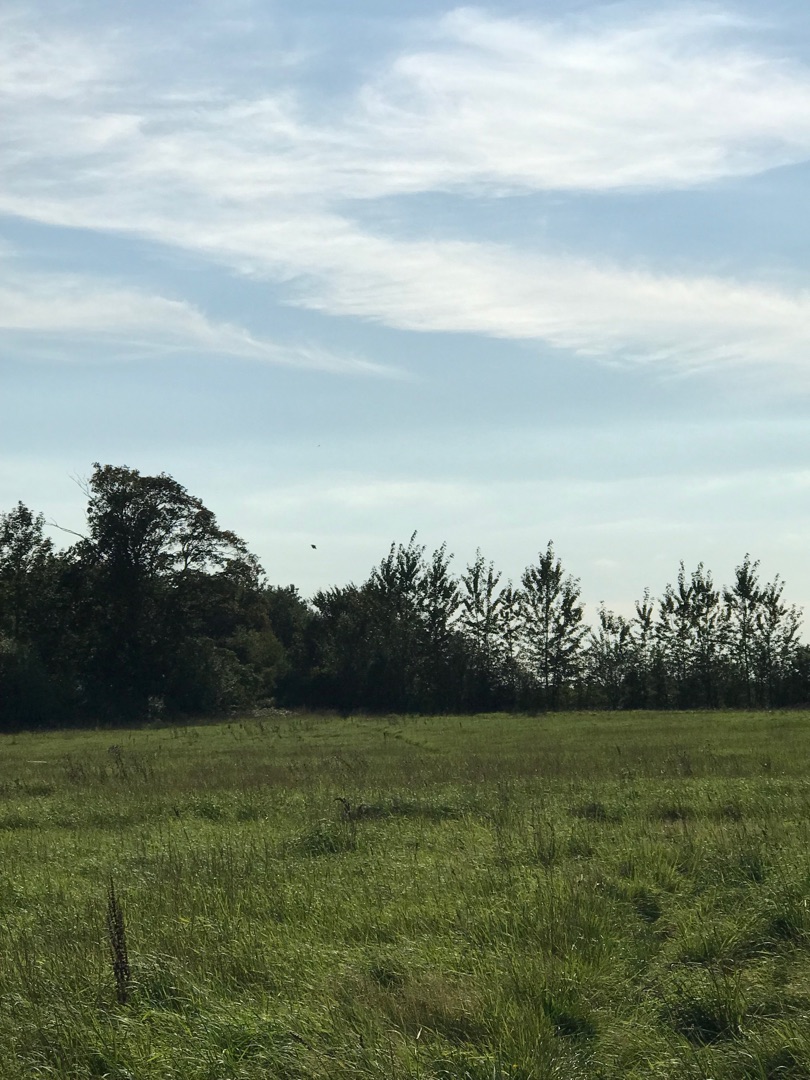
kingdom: Animalia
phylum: Chordata
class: Aves
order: Passeriformes
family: Corvidae
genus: Corvus
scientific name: Corvus corax
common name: Ravn
